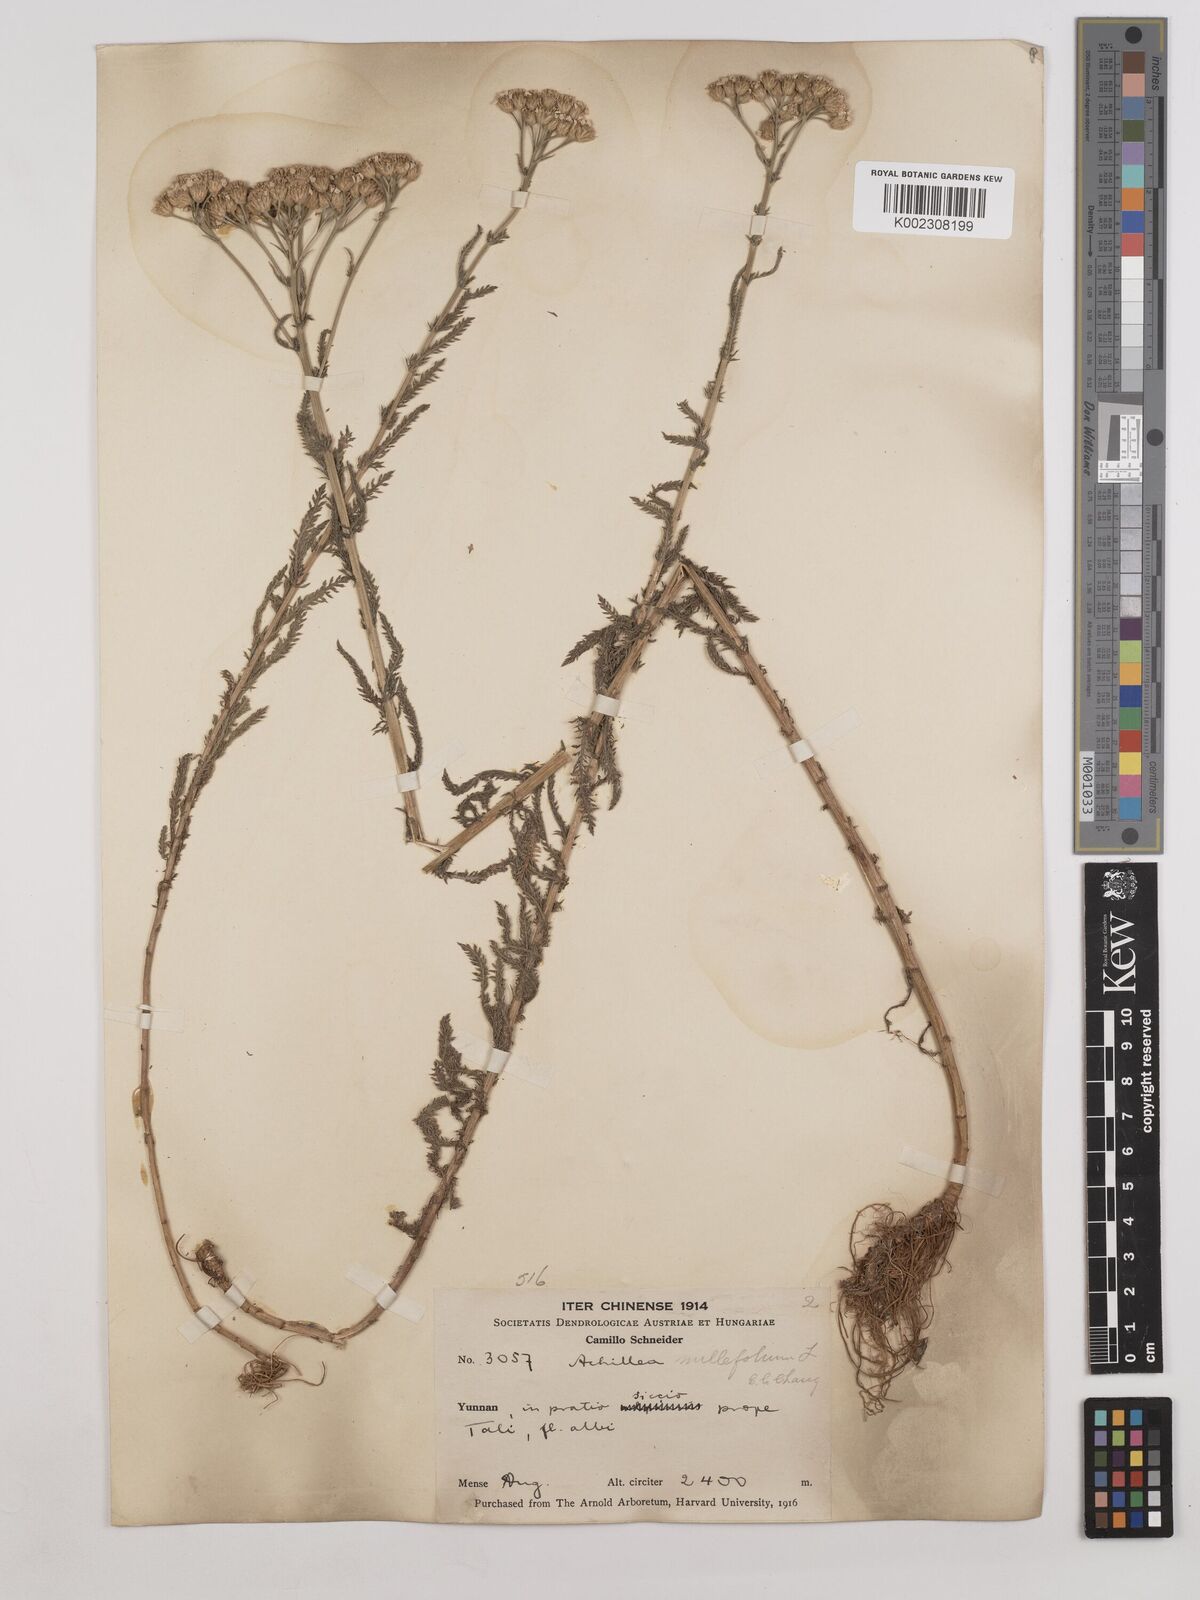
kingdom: Plantae
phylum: Tracheophyta
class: Magnoliopsida
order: Asterales
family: Asteraceae
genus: Achillea
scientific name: Achillea alpina
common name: Siberian yarrow
